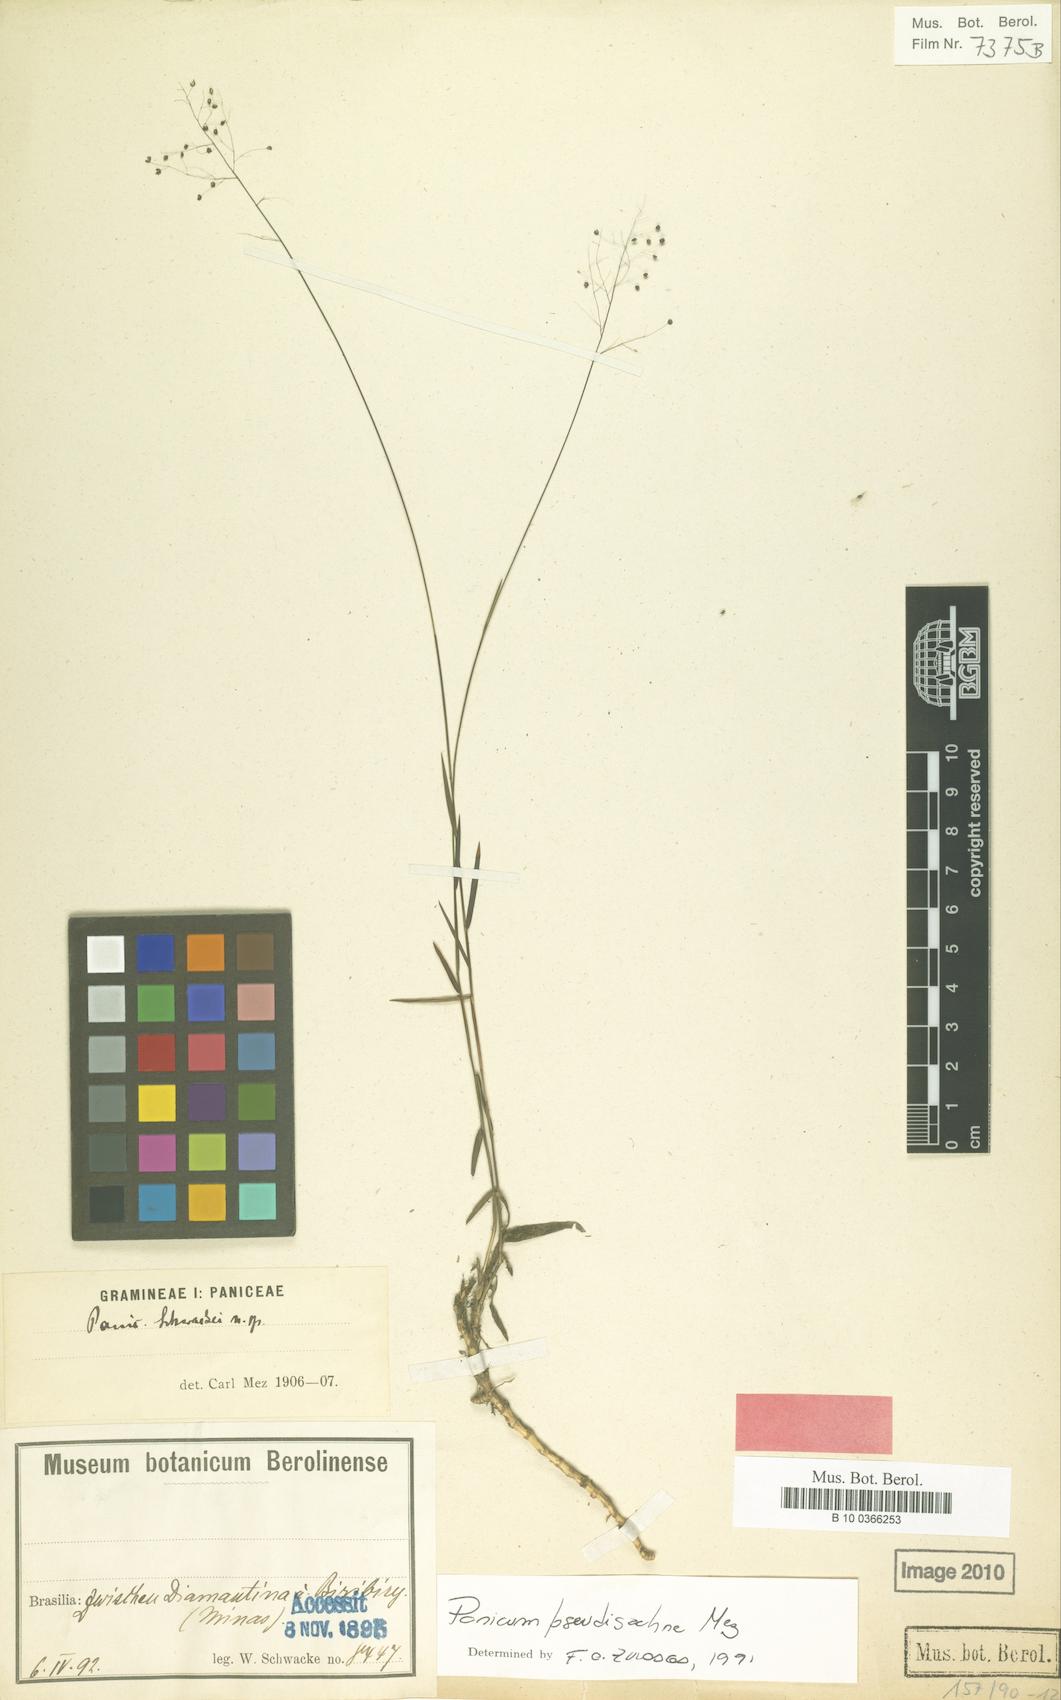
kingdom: Plantae
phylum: Tracheophyta
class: Liliopsida
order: Poales
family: Poaceae
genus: Trichanthecium
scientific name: Trichanthecium schwackeanum
